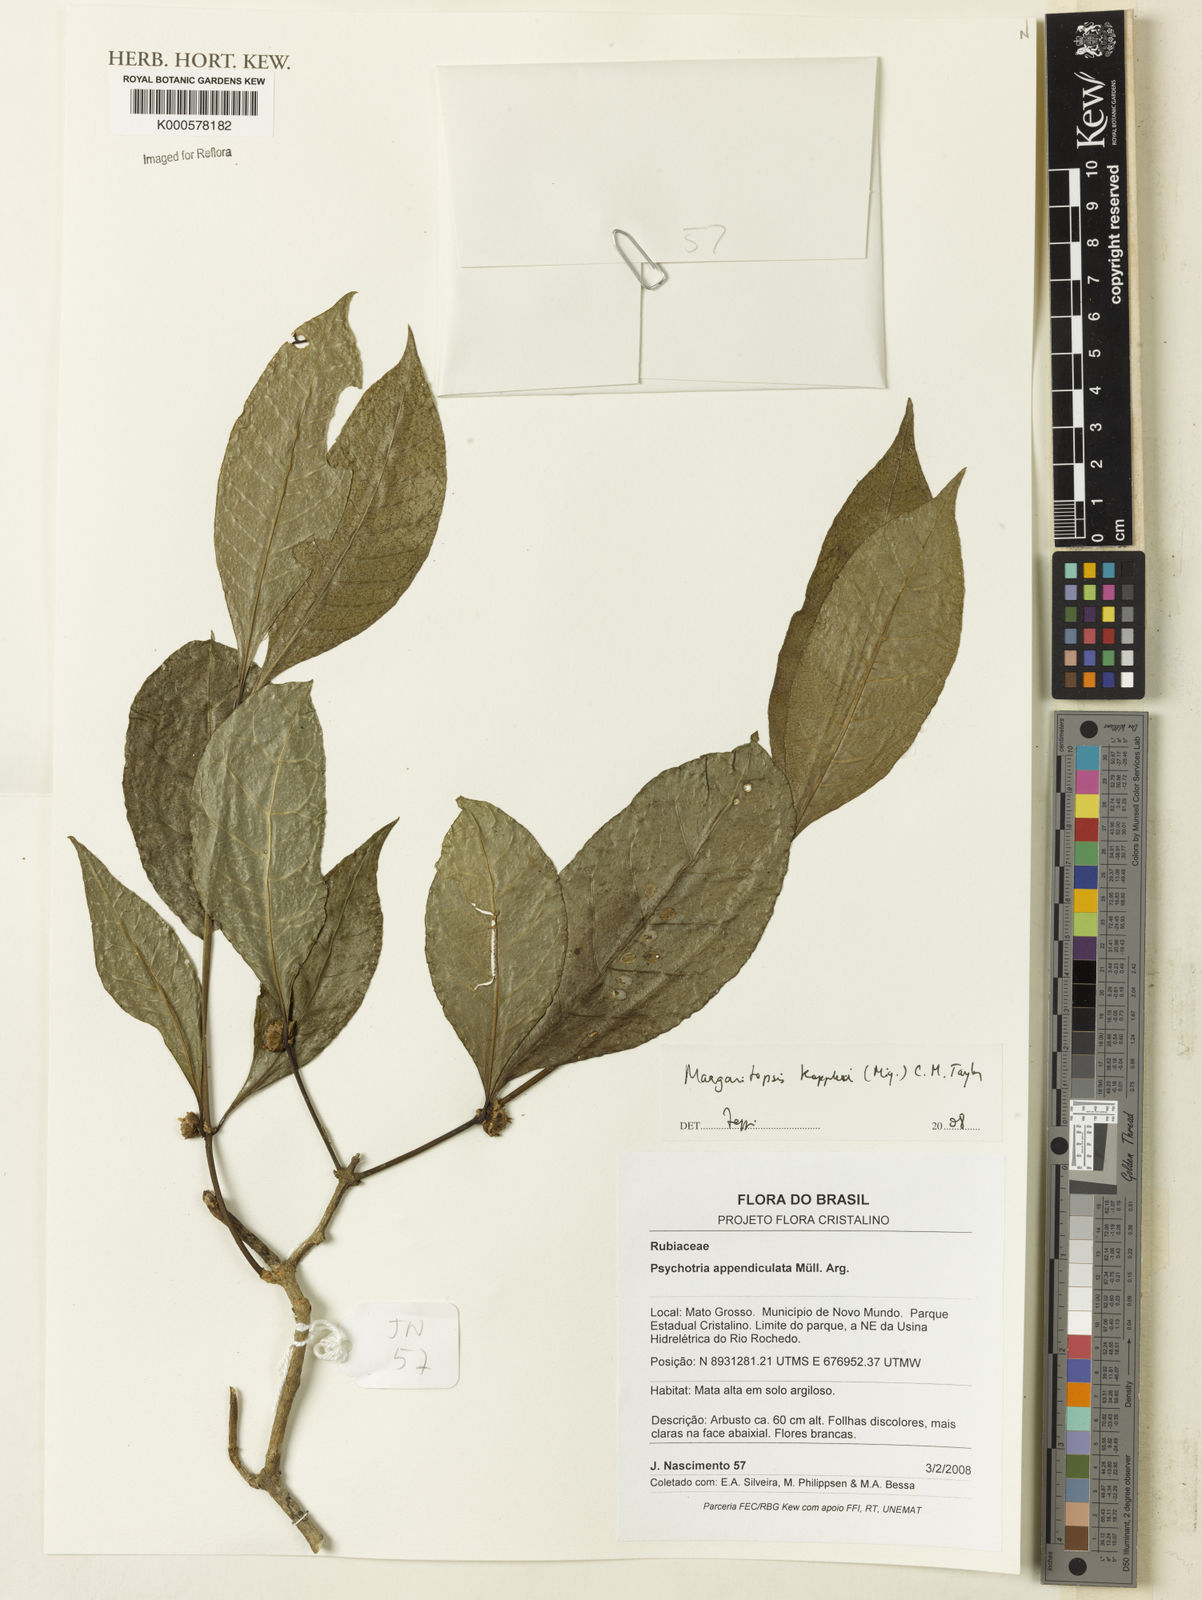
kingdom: Plantae
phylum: Tracheophyta
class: Magnoliopsida
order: Gentianales
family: Rubiaceae
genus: Eumachia
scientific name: Eumachia kappleri
